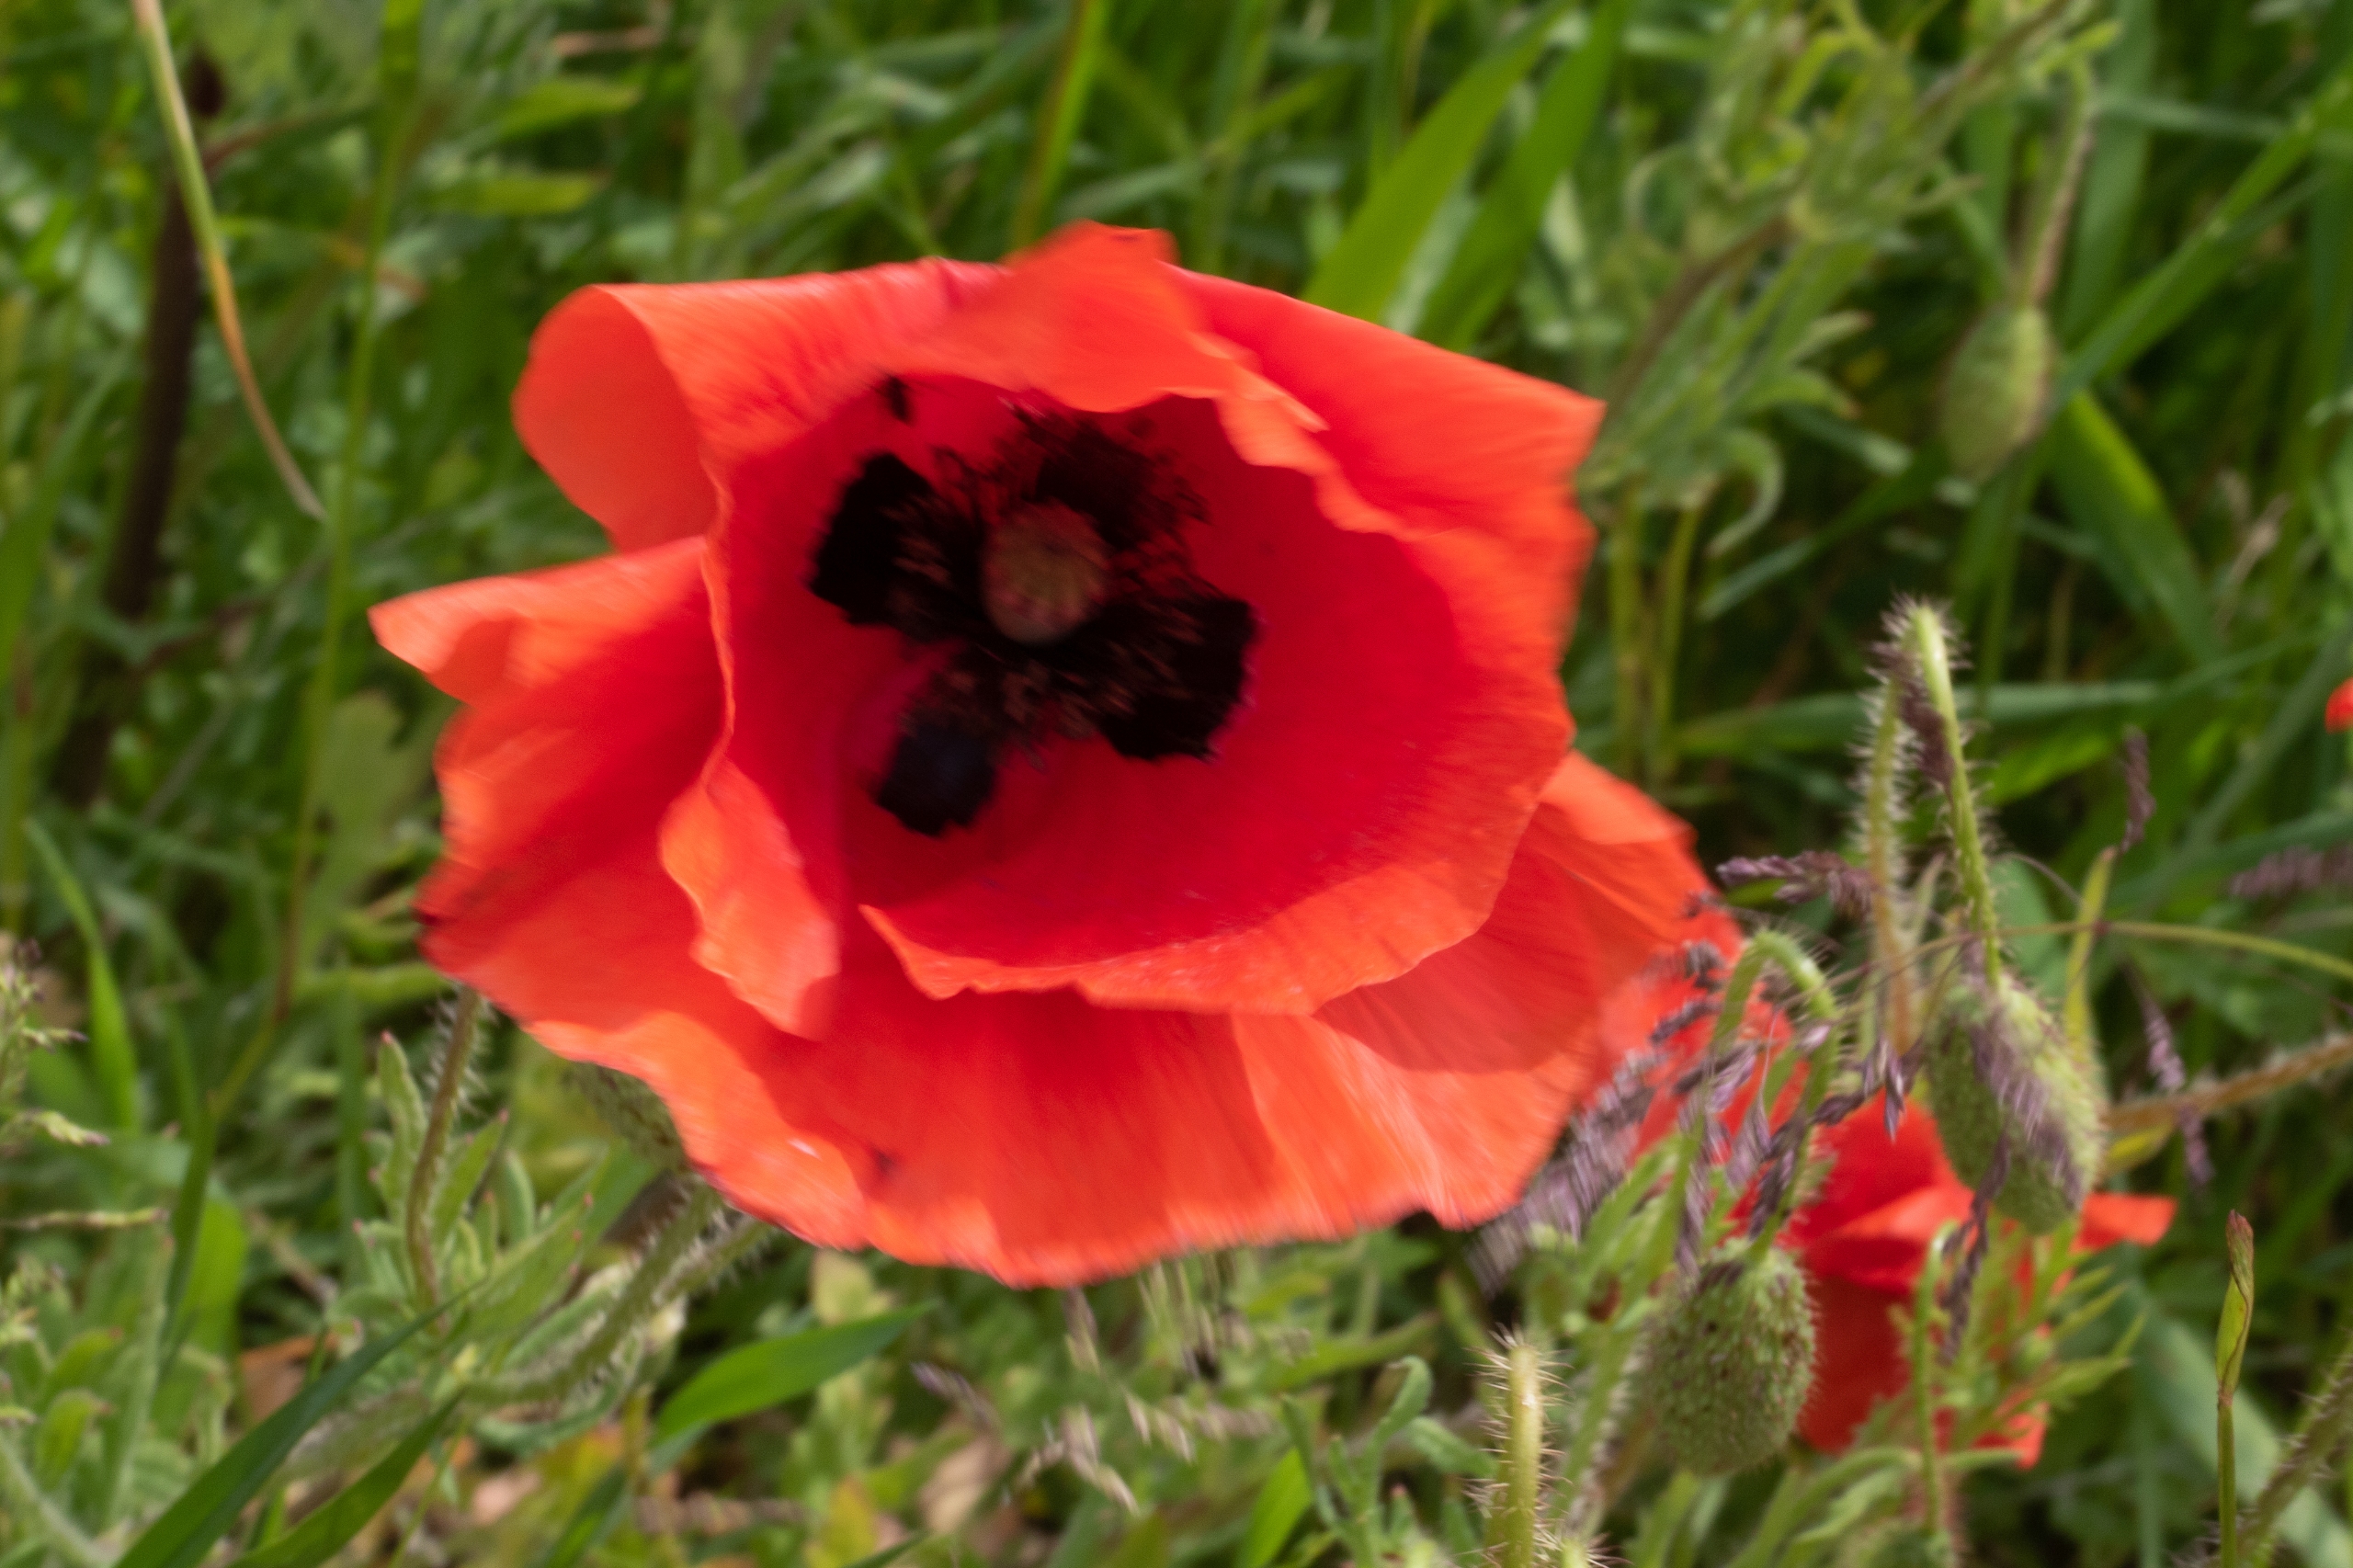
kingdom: Plantae
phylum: Tracheophyta
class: Magnoliopsida
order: Ranunculales
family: Papaveraceae
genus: Papaver
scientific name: Papaver rhoeas
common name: Korn-valmue
